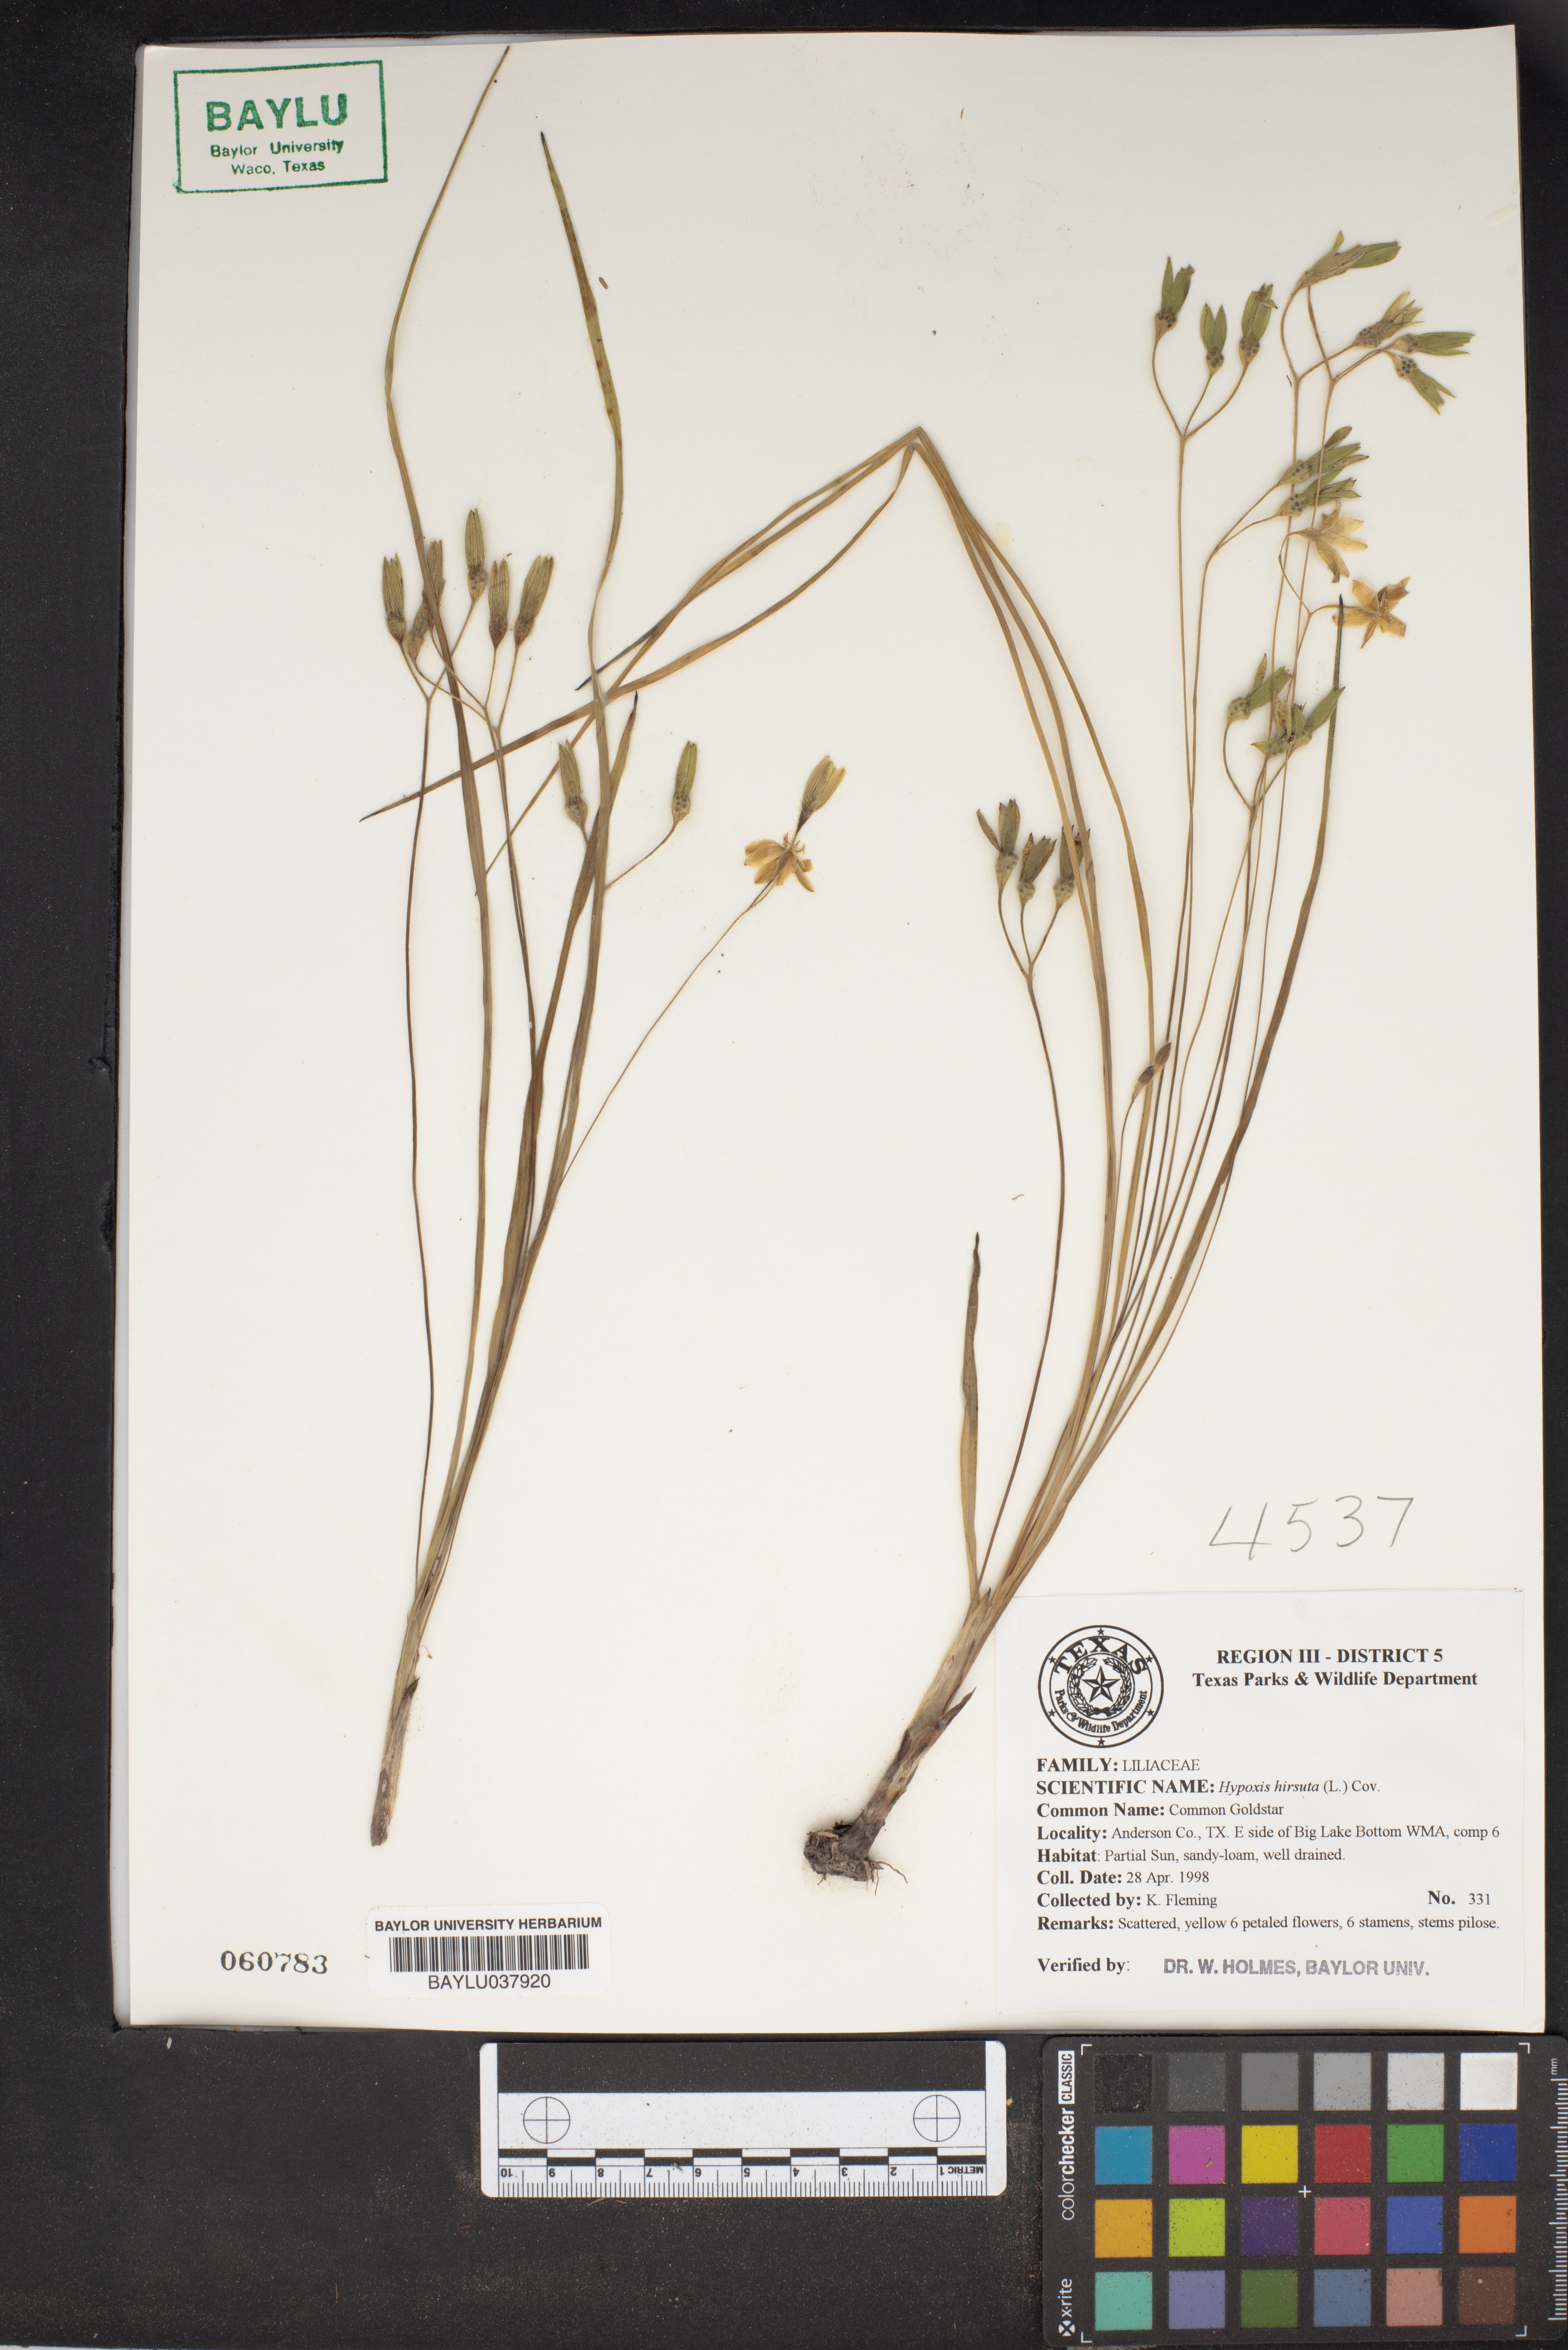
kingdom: Plantae
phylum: Tracheophyta
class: Liliopsida
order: Asparagales
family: Hypoxidaceae
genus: Hypoxis
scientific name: Hypoxis hirsuta
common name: Common goldstar
